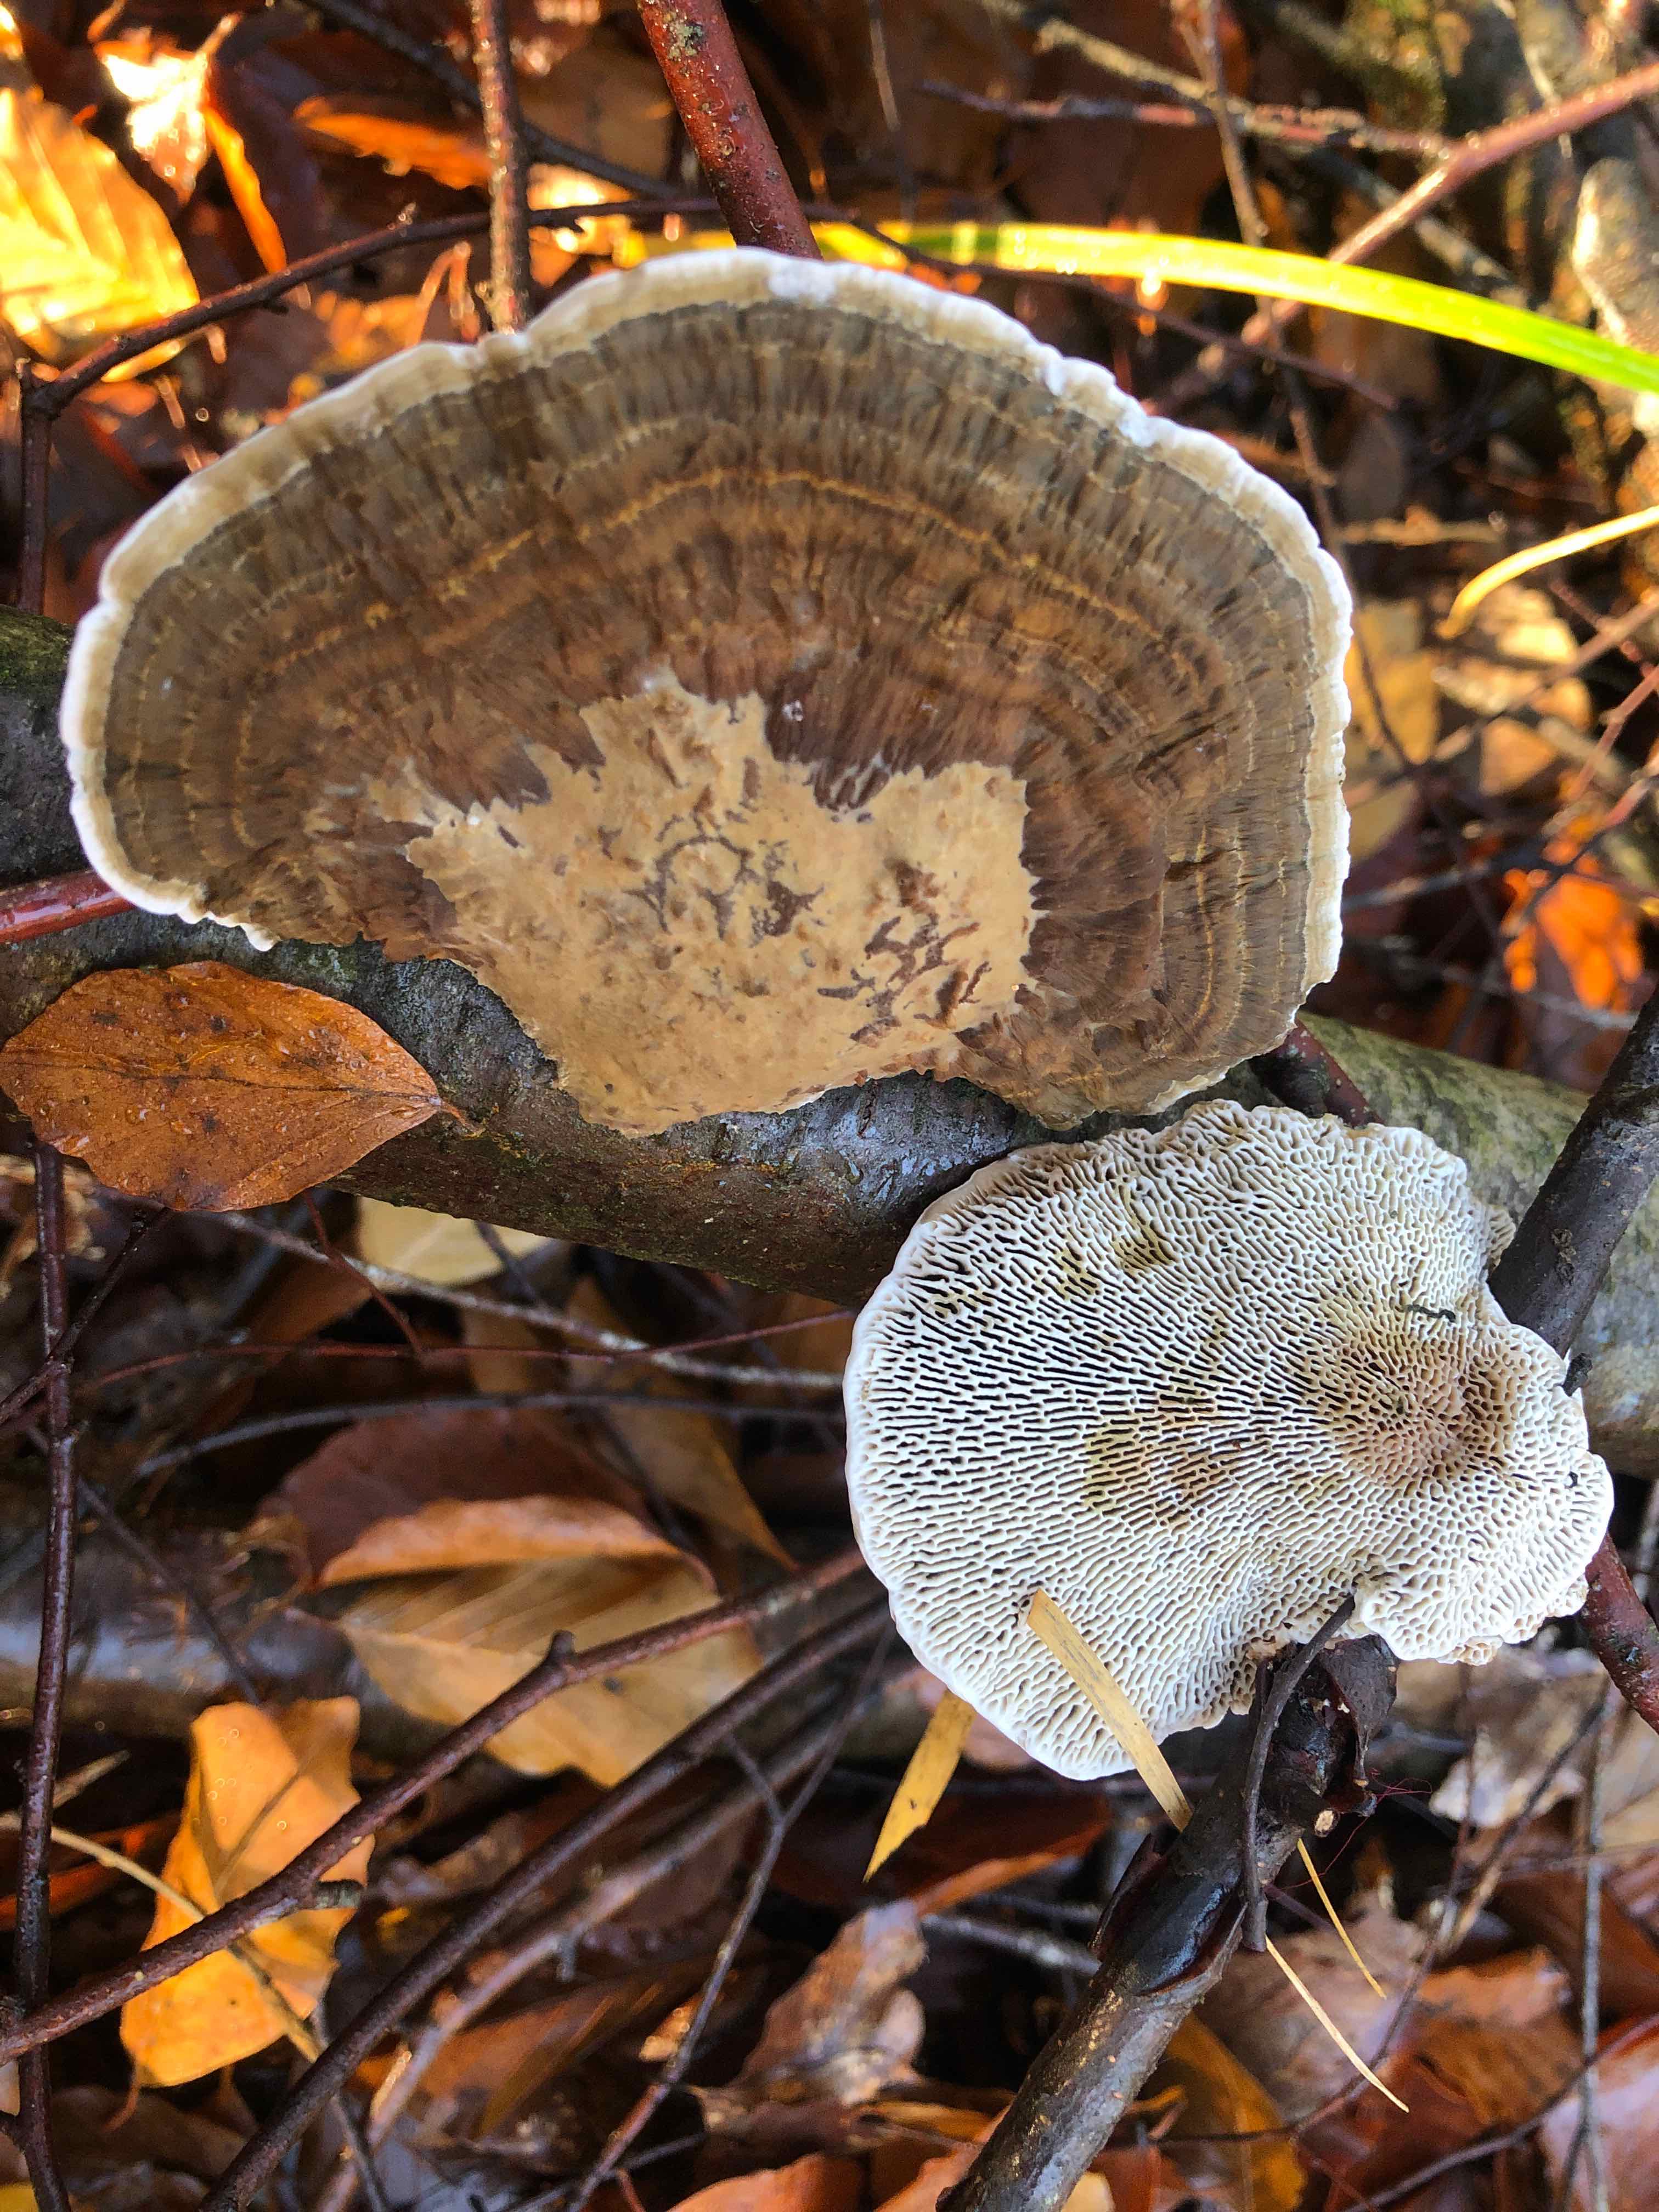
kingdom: Fungi
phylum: Basidiomycota
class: Agaricomycetes
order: Polyporales
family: Polyporaceae
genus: Daedaleopsis
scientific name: Daedaleopsis confragosa
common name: rødmende læderporesvamp
